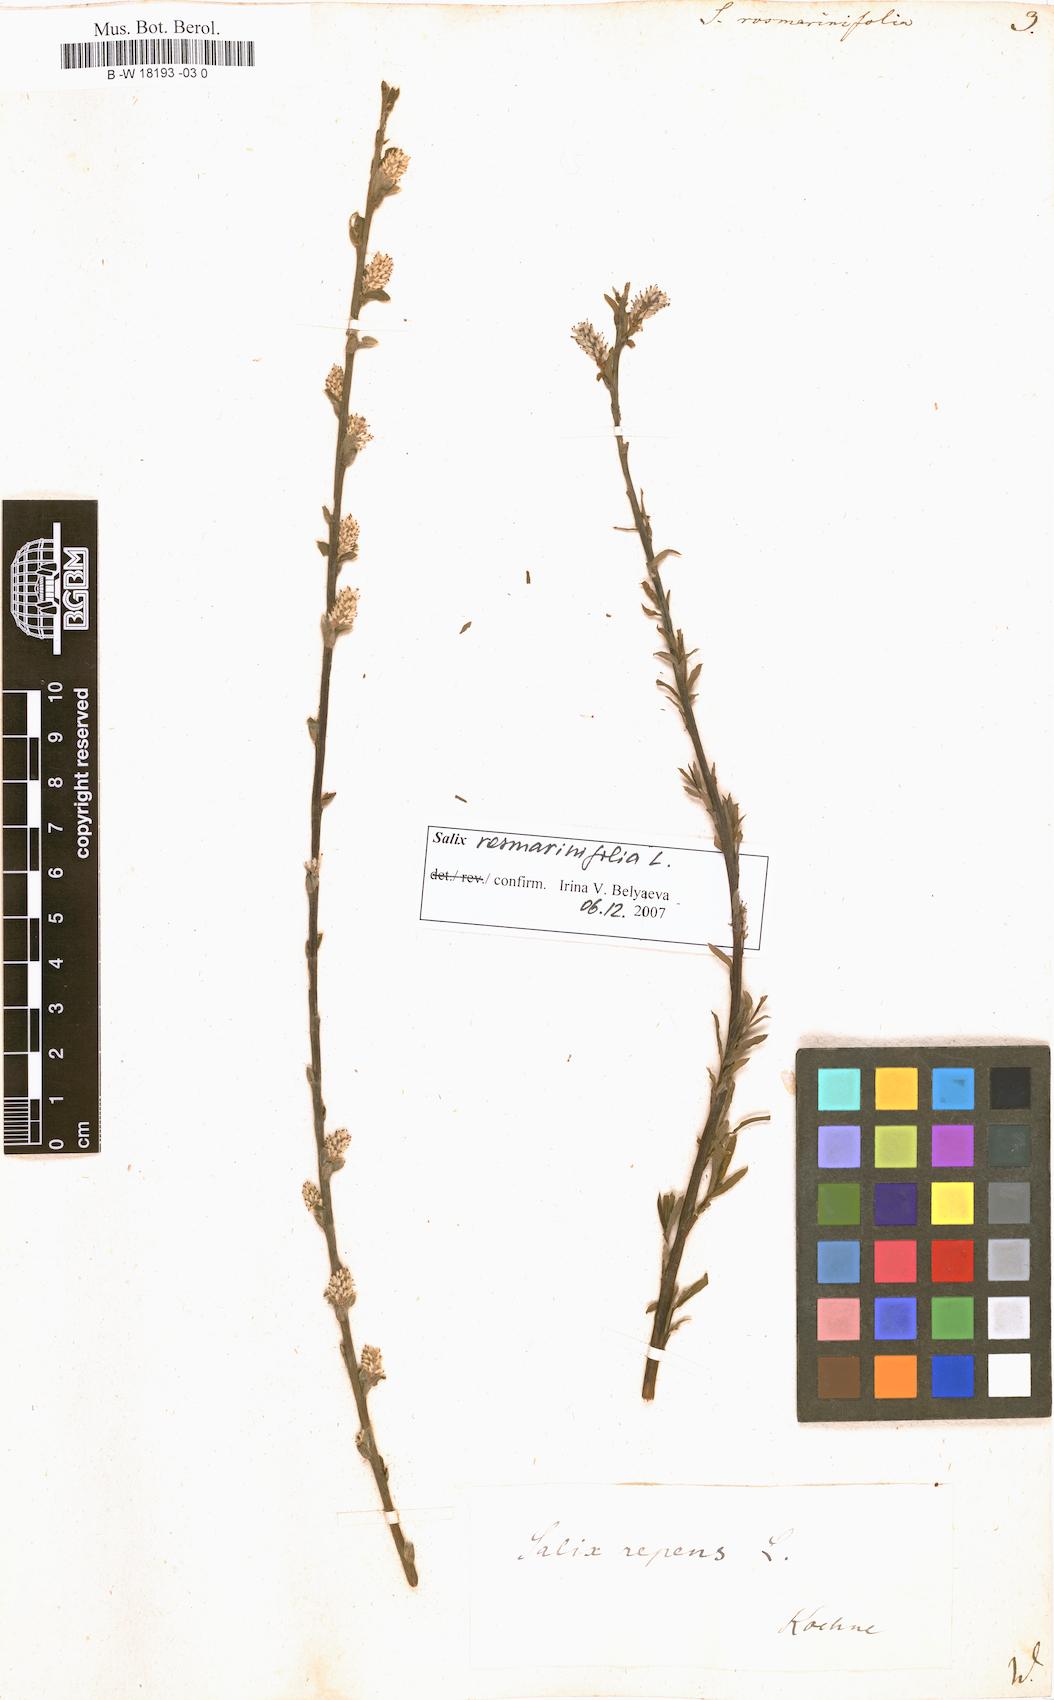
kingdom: Plantae
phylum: Tracheophyta
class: Magnoliopsida
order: Malpighiales
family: Salicaceae
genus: Salix
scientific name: Salix rosmarinifolia
